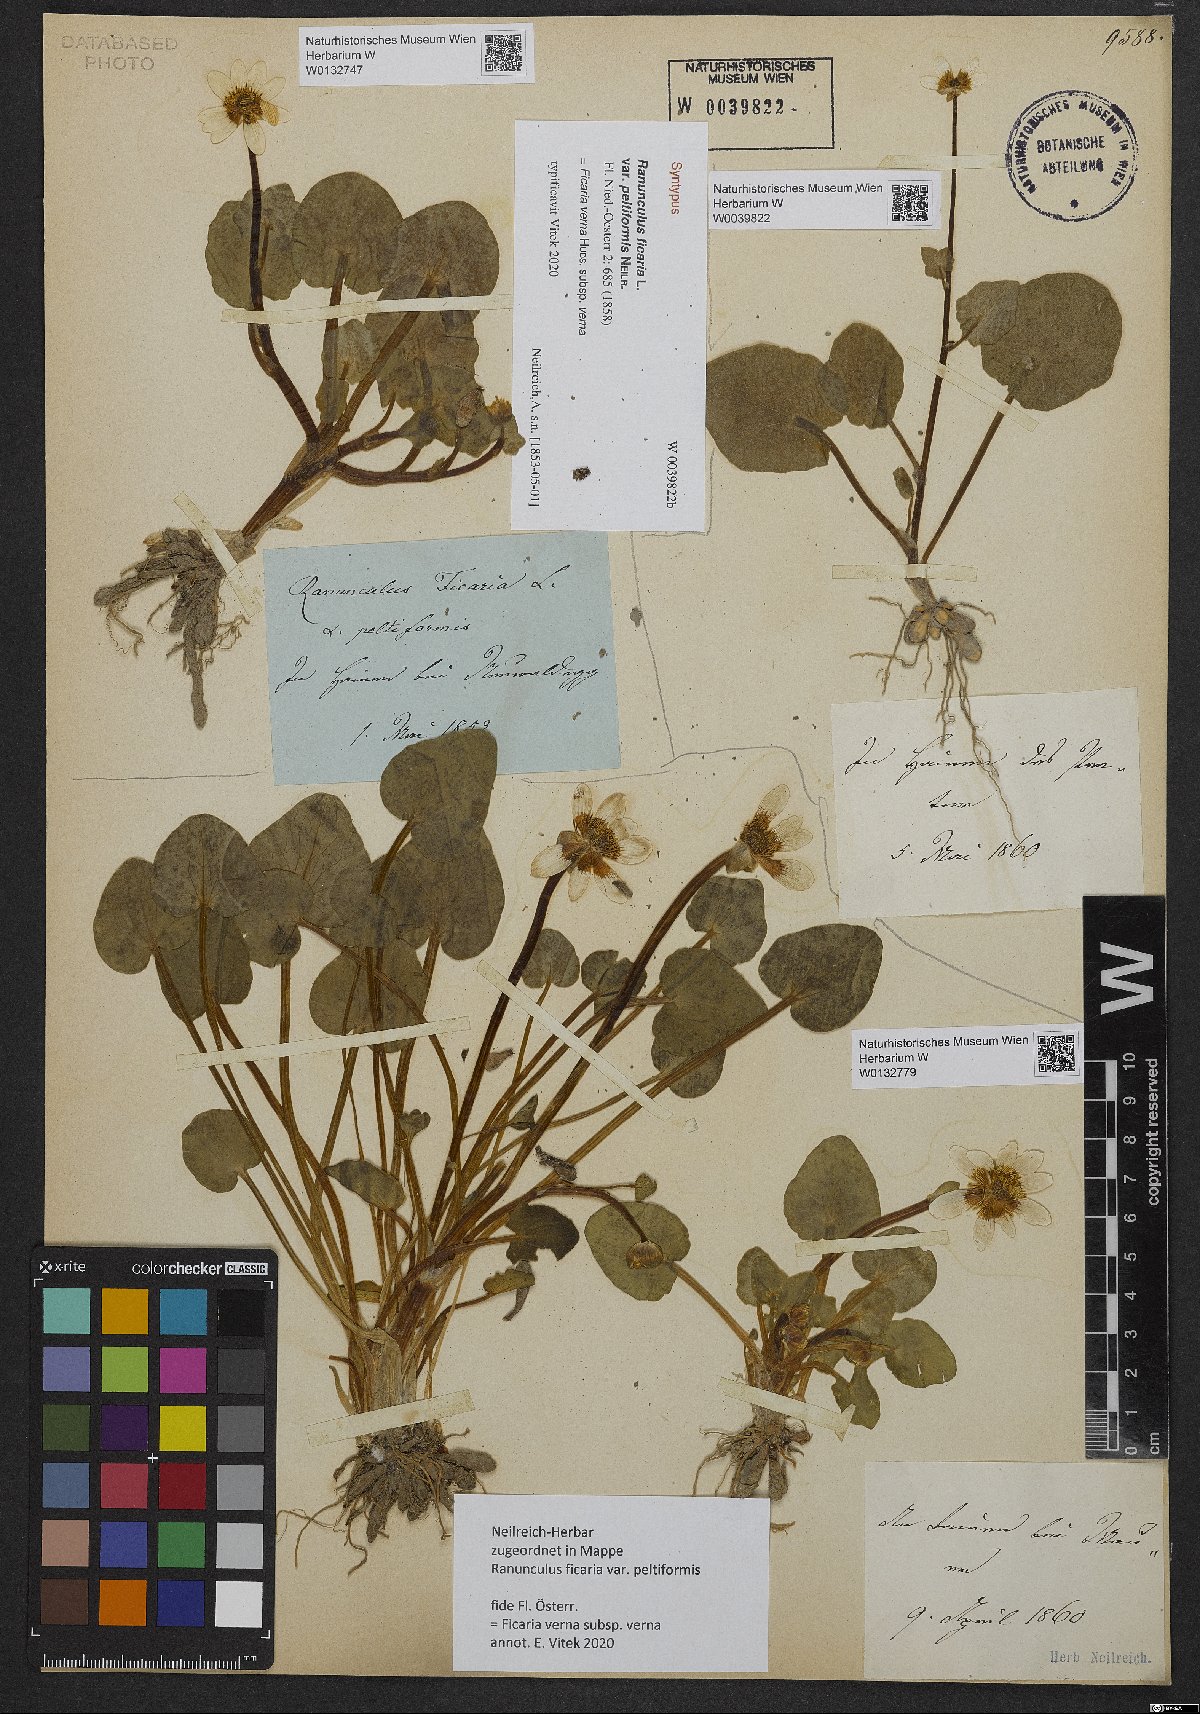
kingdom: Plantae
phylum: Tracheophyta
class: Magnoliopsida
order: Ranunculales
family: Ranunculaceae
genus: Ficaria
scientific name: Ficaria verna
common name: Lesser celandine
